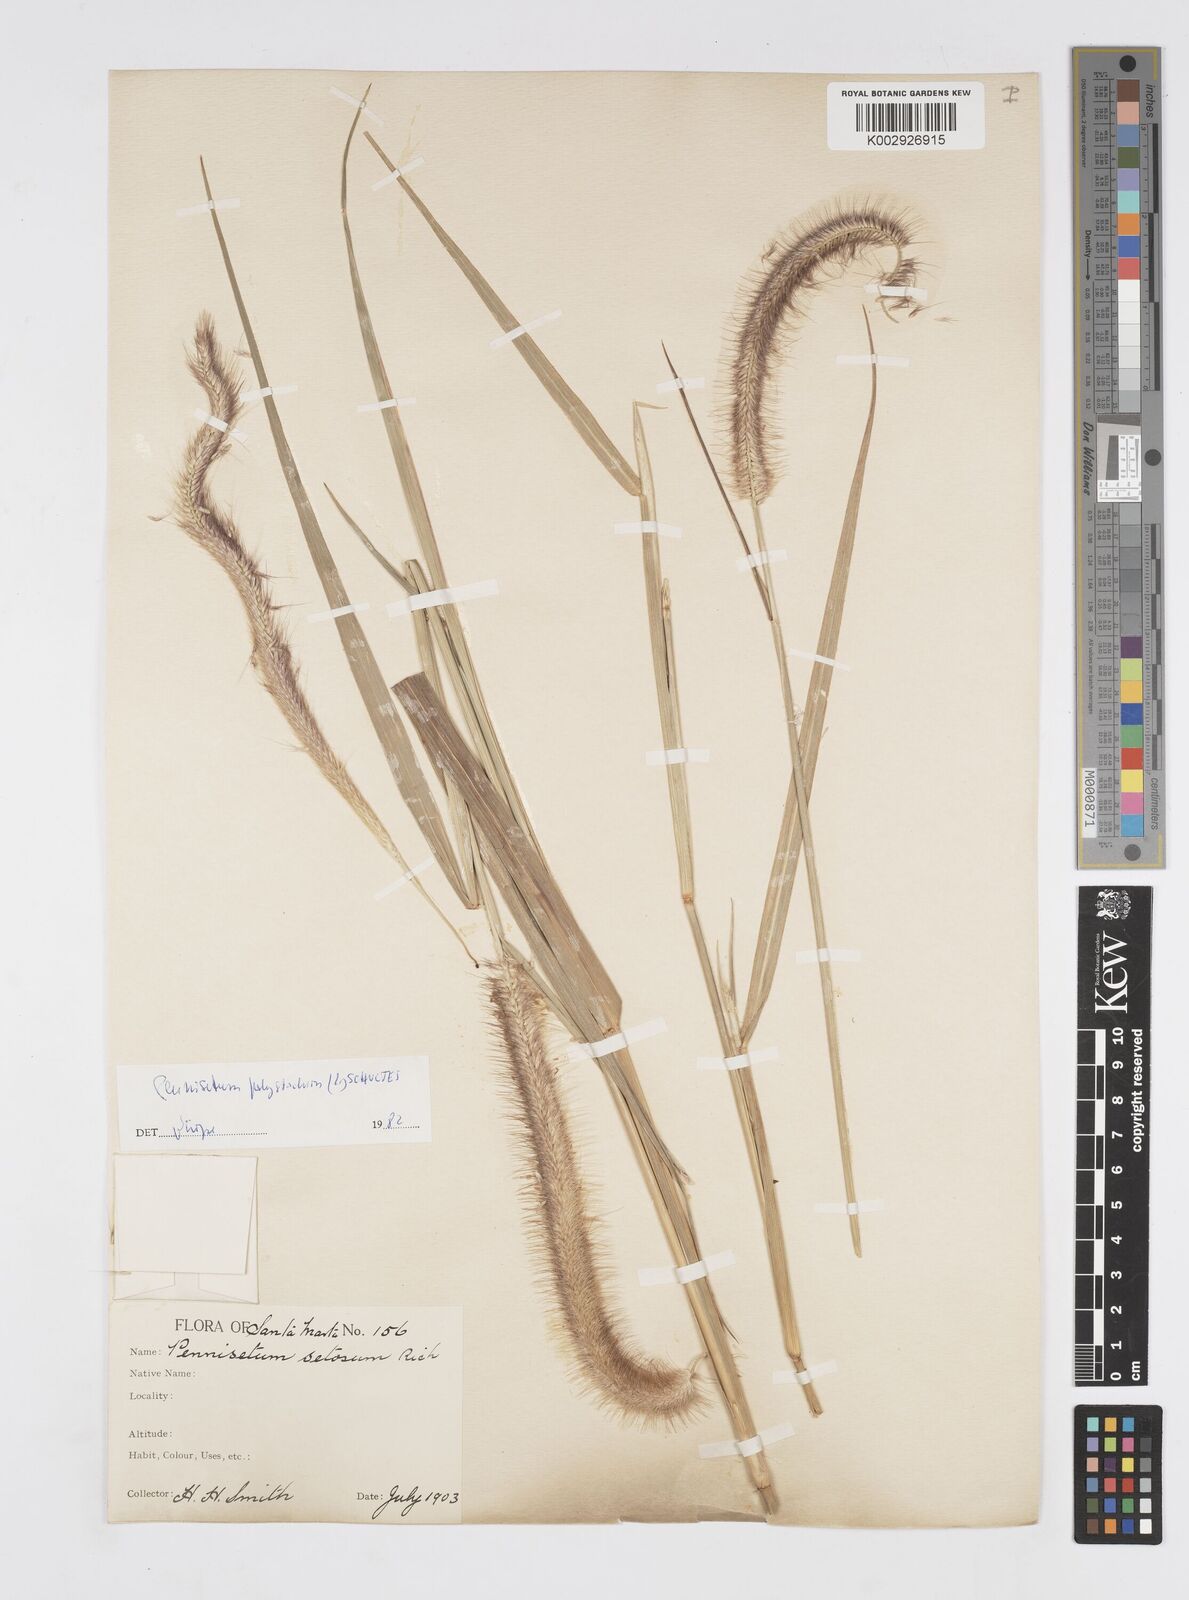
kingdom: Plantae
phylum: Tracheophyta
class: Liliopsida
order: Poales
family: Poaceae
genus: Setaria
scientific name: Setaria parviflora
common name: Knotroot bristle-grass
